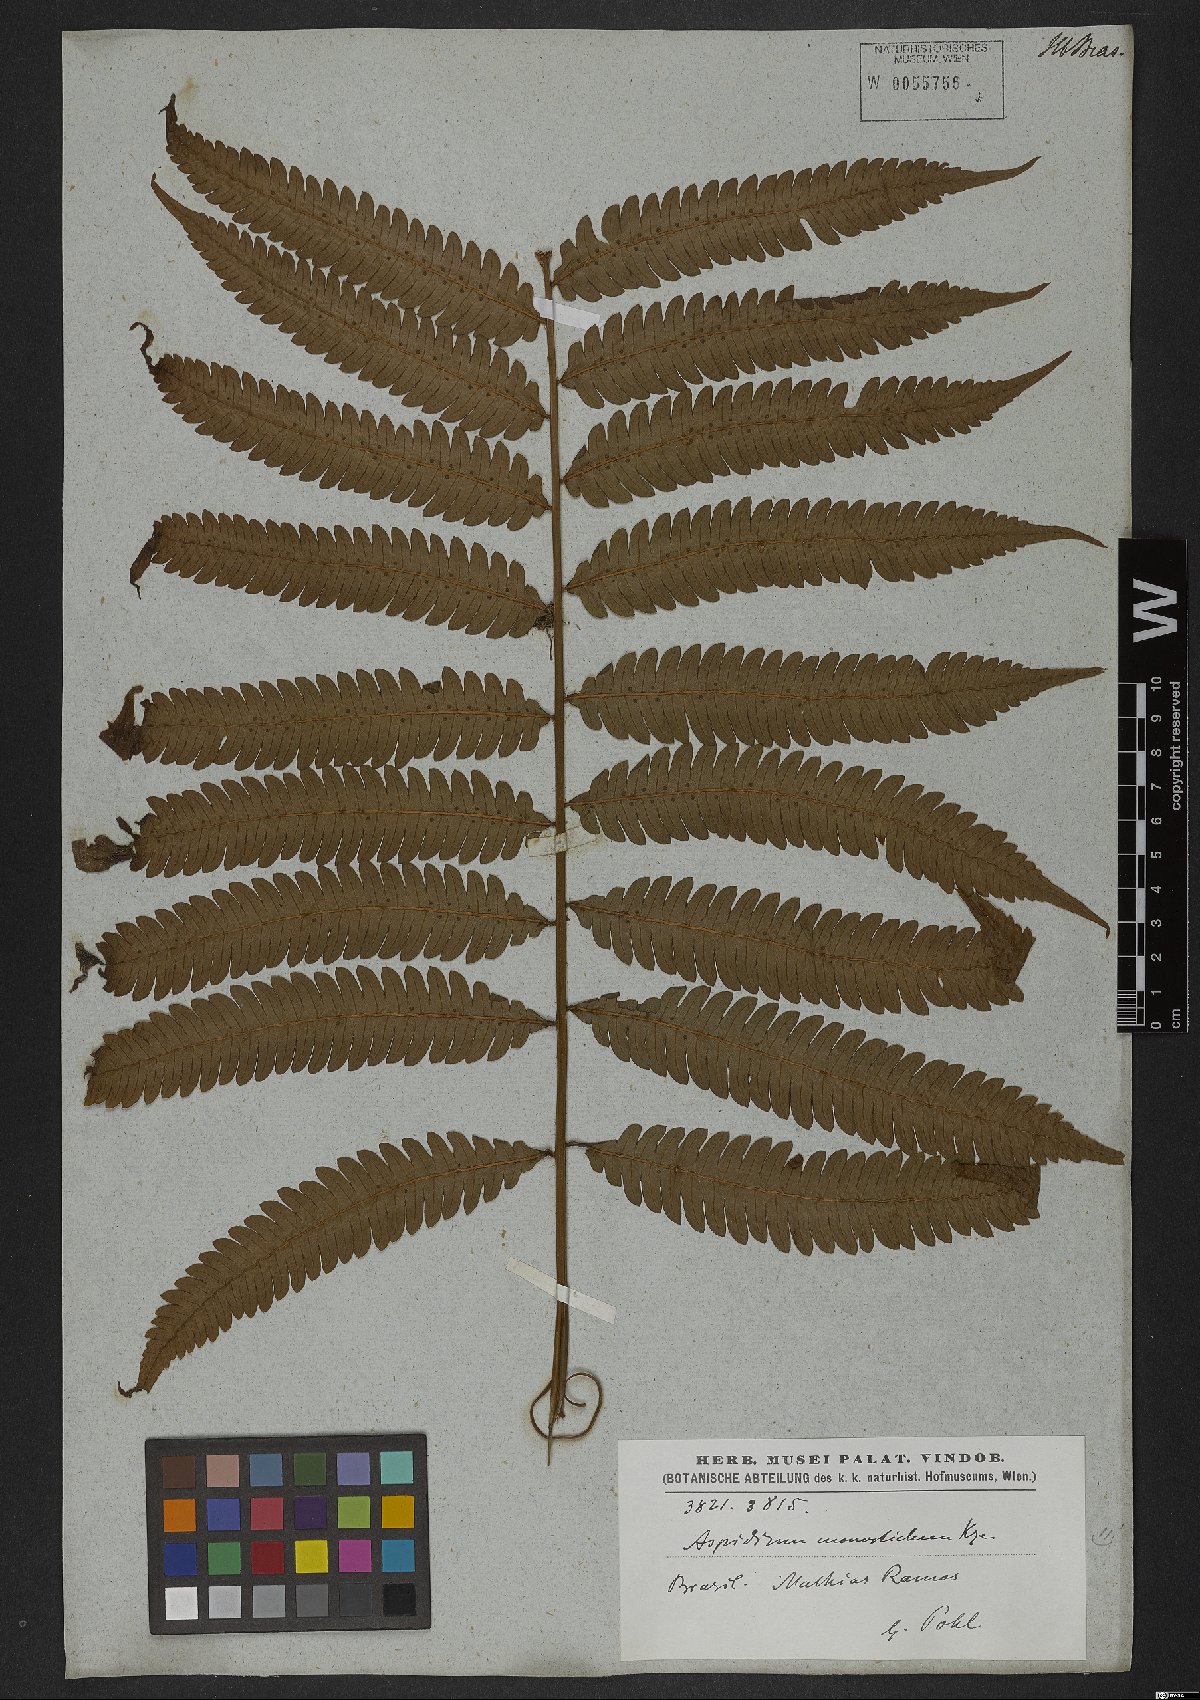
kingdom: Plantae
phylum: Tracheophyta
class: Polypodiopsida
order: Polypodiales
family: Thelypteridaceae
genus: Goniopteris
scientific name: Goniopteris tristis
